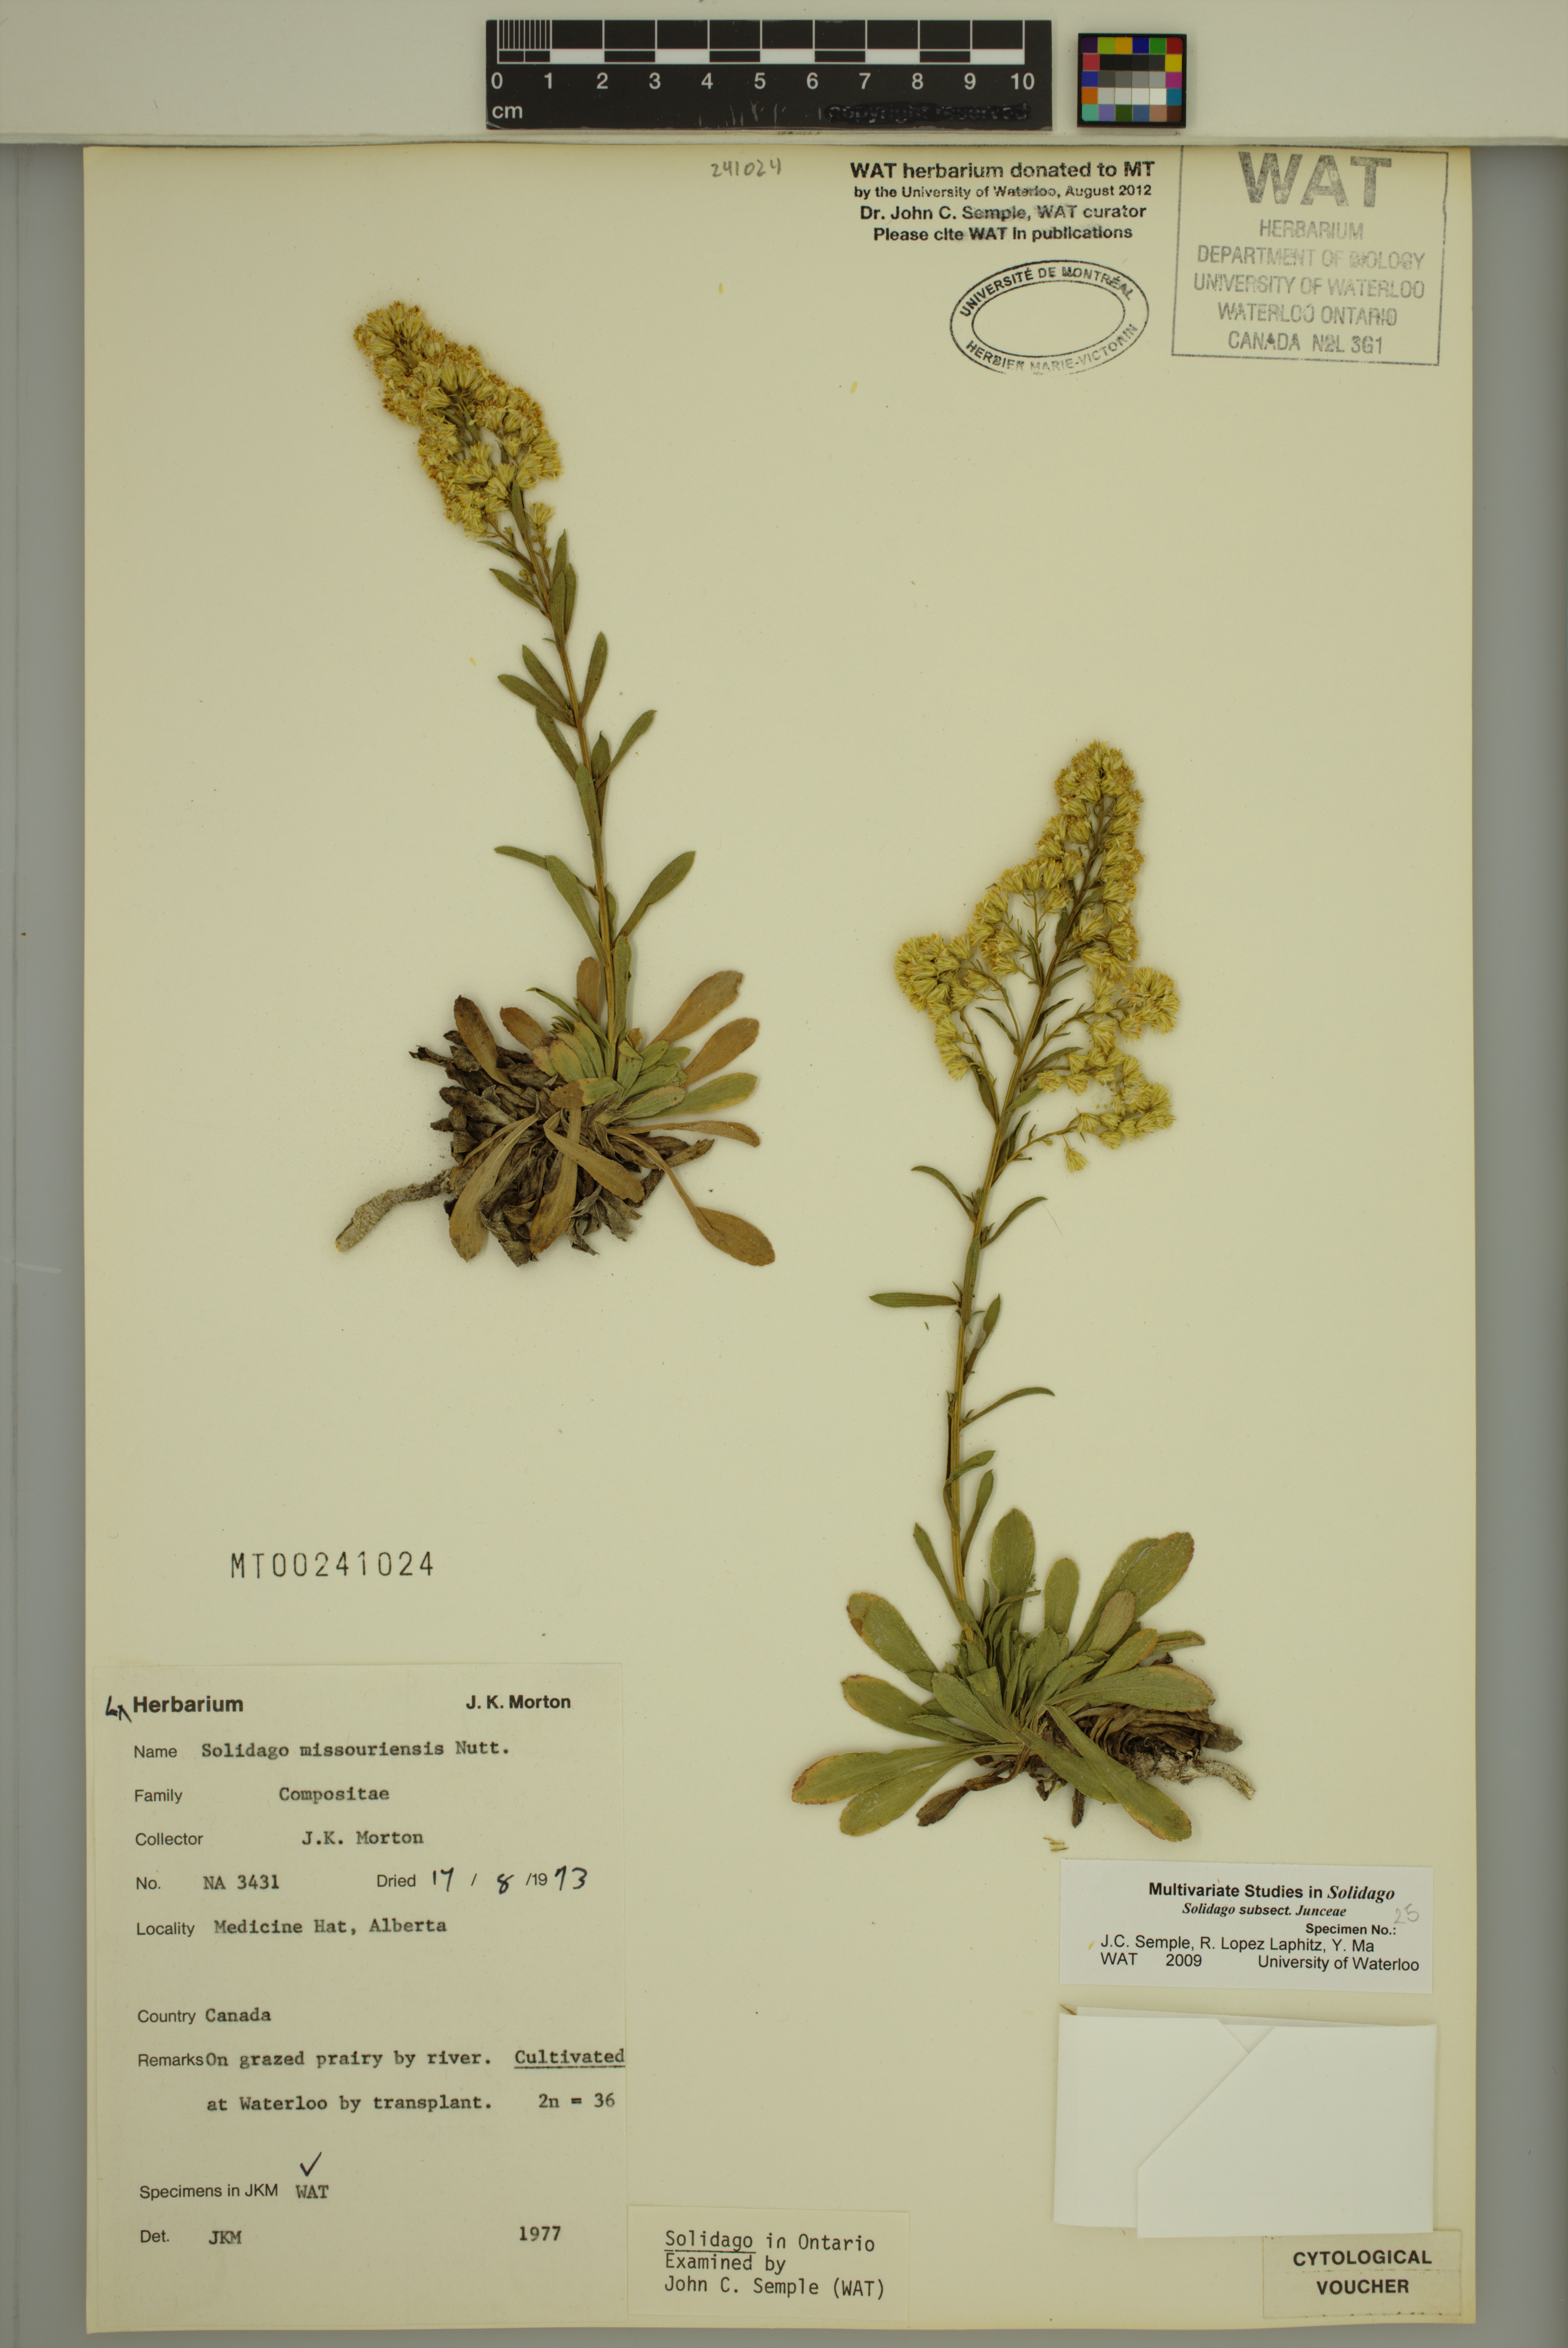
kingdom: Plantae
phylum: Tracheophyta
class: Magnoliopsida
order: Asterales
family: Asteraceae
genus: Solidago
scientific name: Solidago missouriensis
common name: Prairie goldenrod
